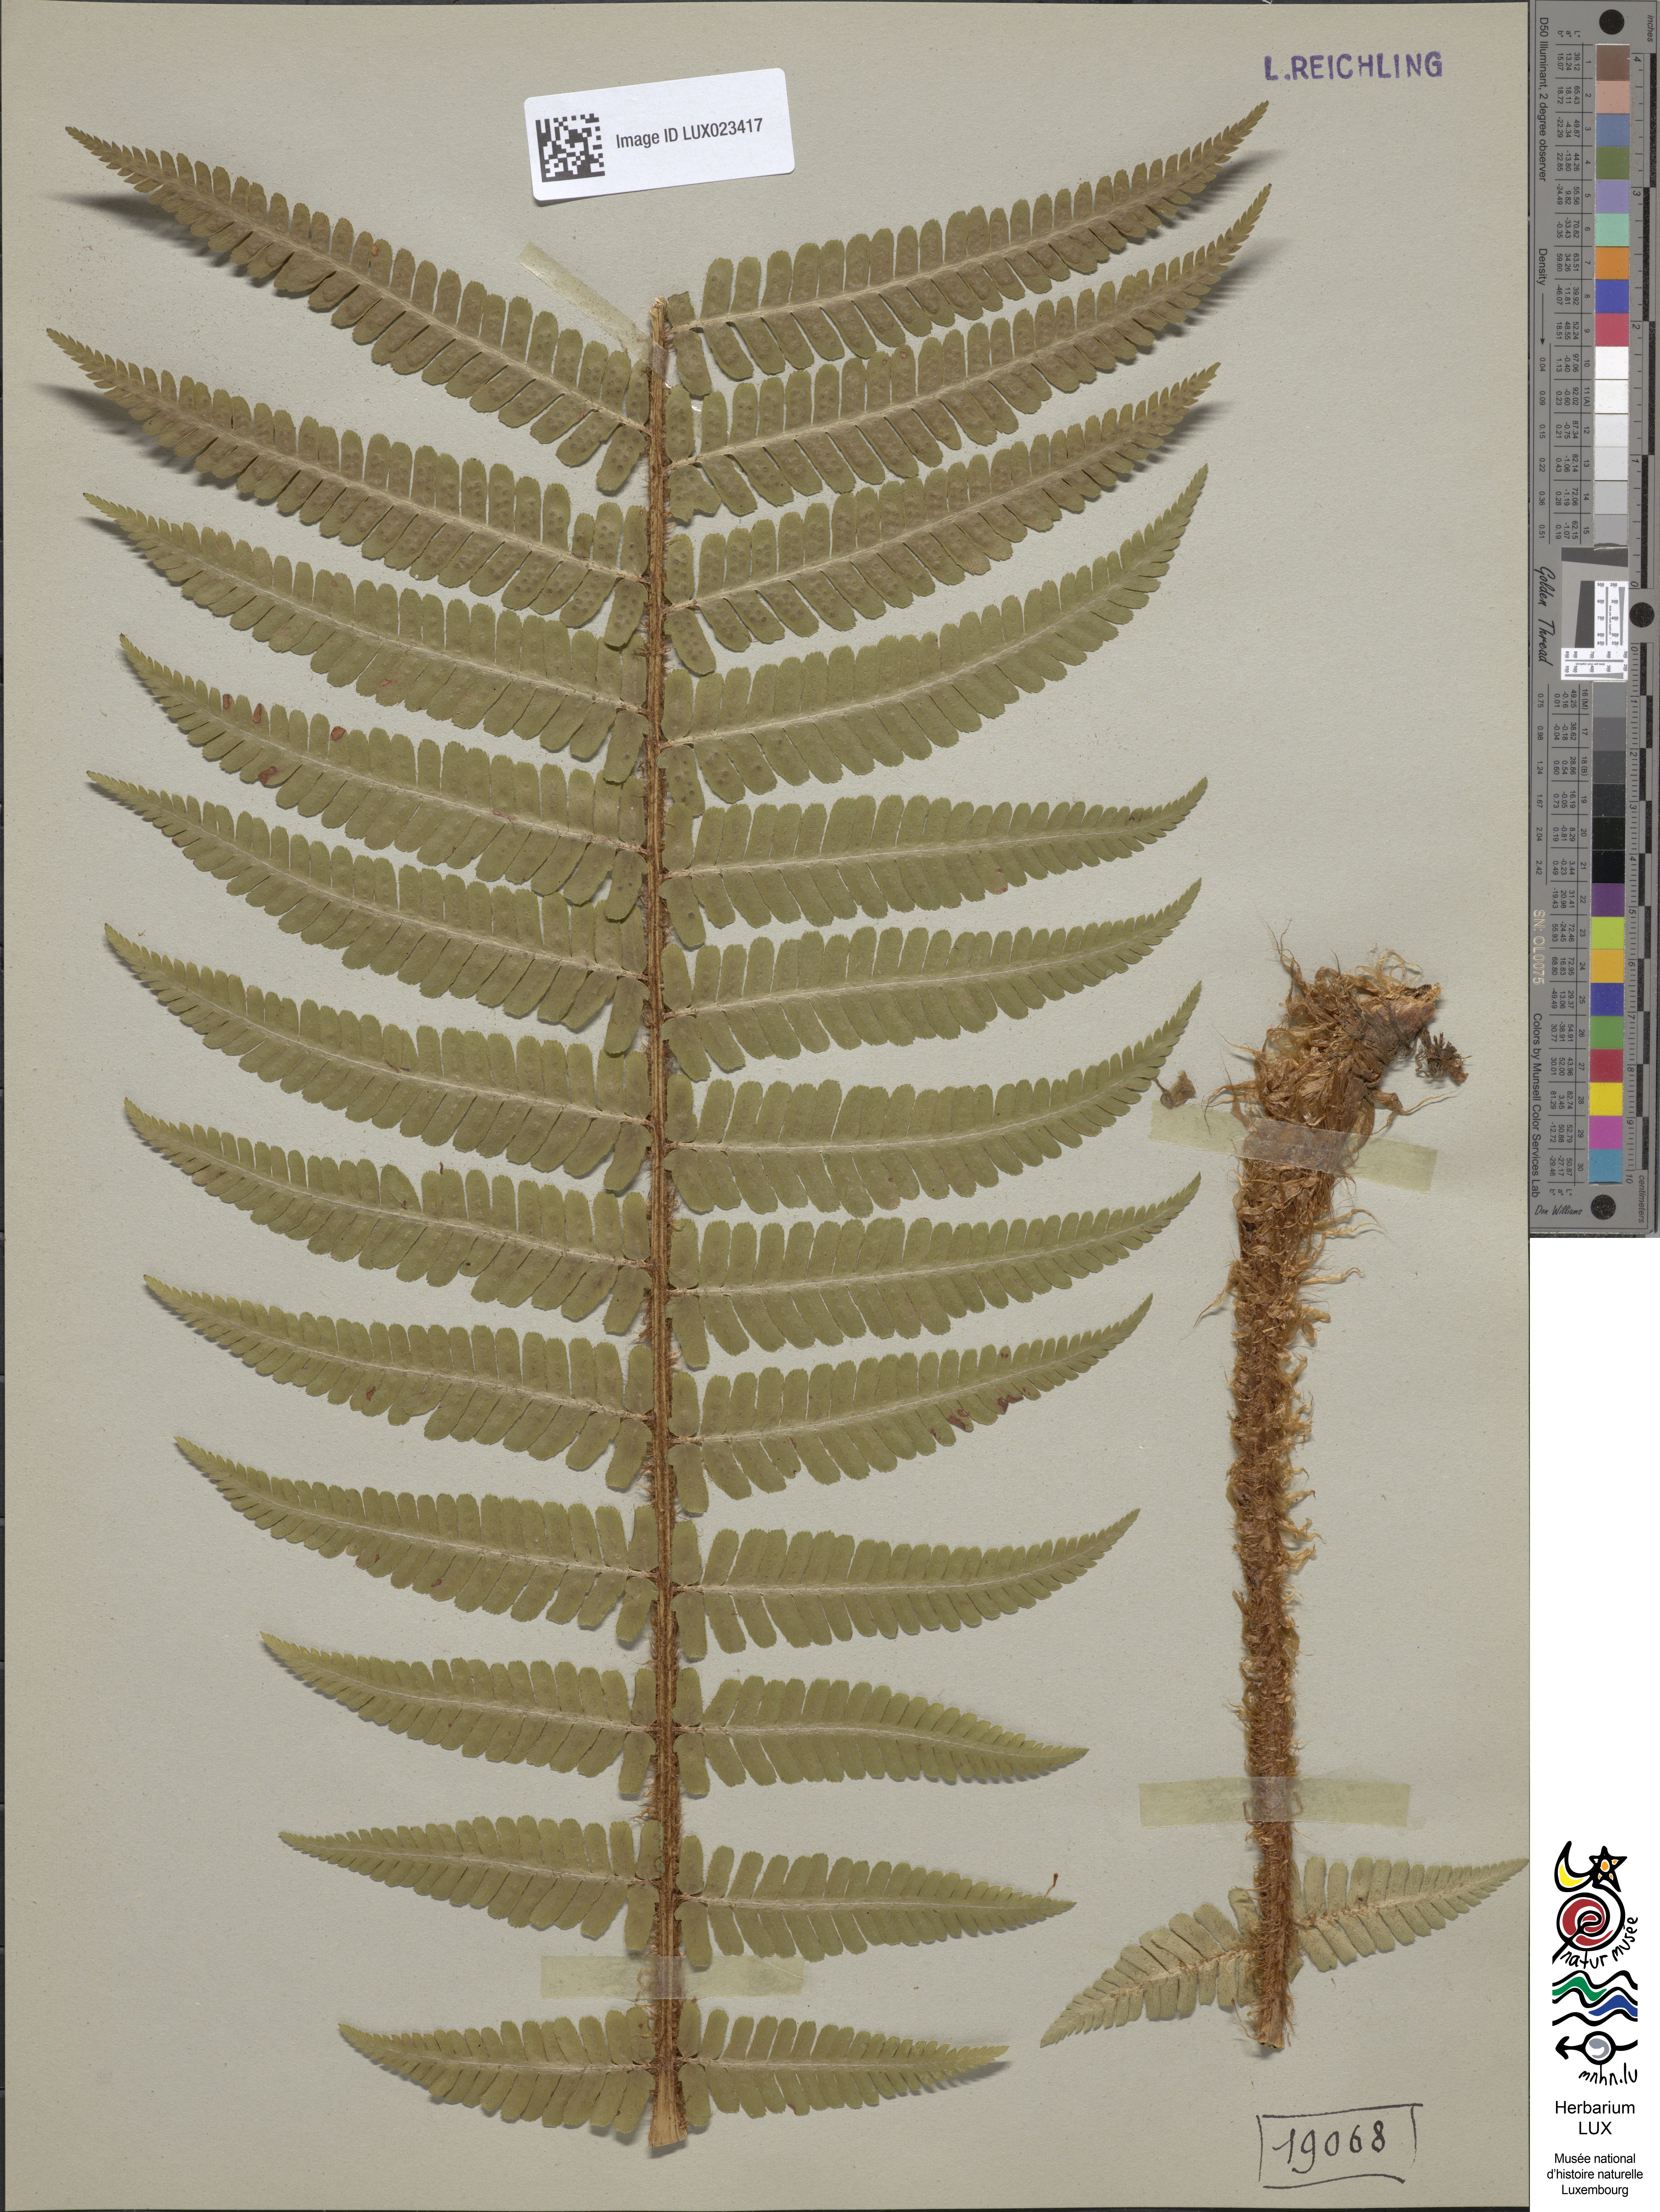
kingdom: Plantae
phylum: Tracheophyta
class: Polypodiopsida
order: Polypodiales
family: Dryopteridaceae
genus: Dryopteris
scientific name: Dryopteris borreri
